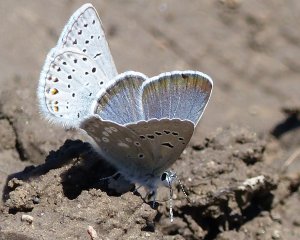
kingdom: Animalia
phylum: Arthropoda
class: Insecta
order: Lepidoptera
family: Lycaenidae
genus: Icaricia
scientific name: Icaricia icarioides
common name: Boisduval's Blue
